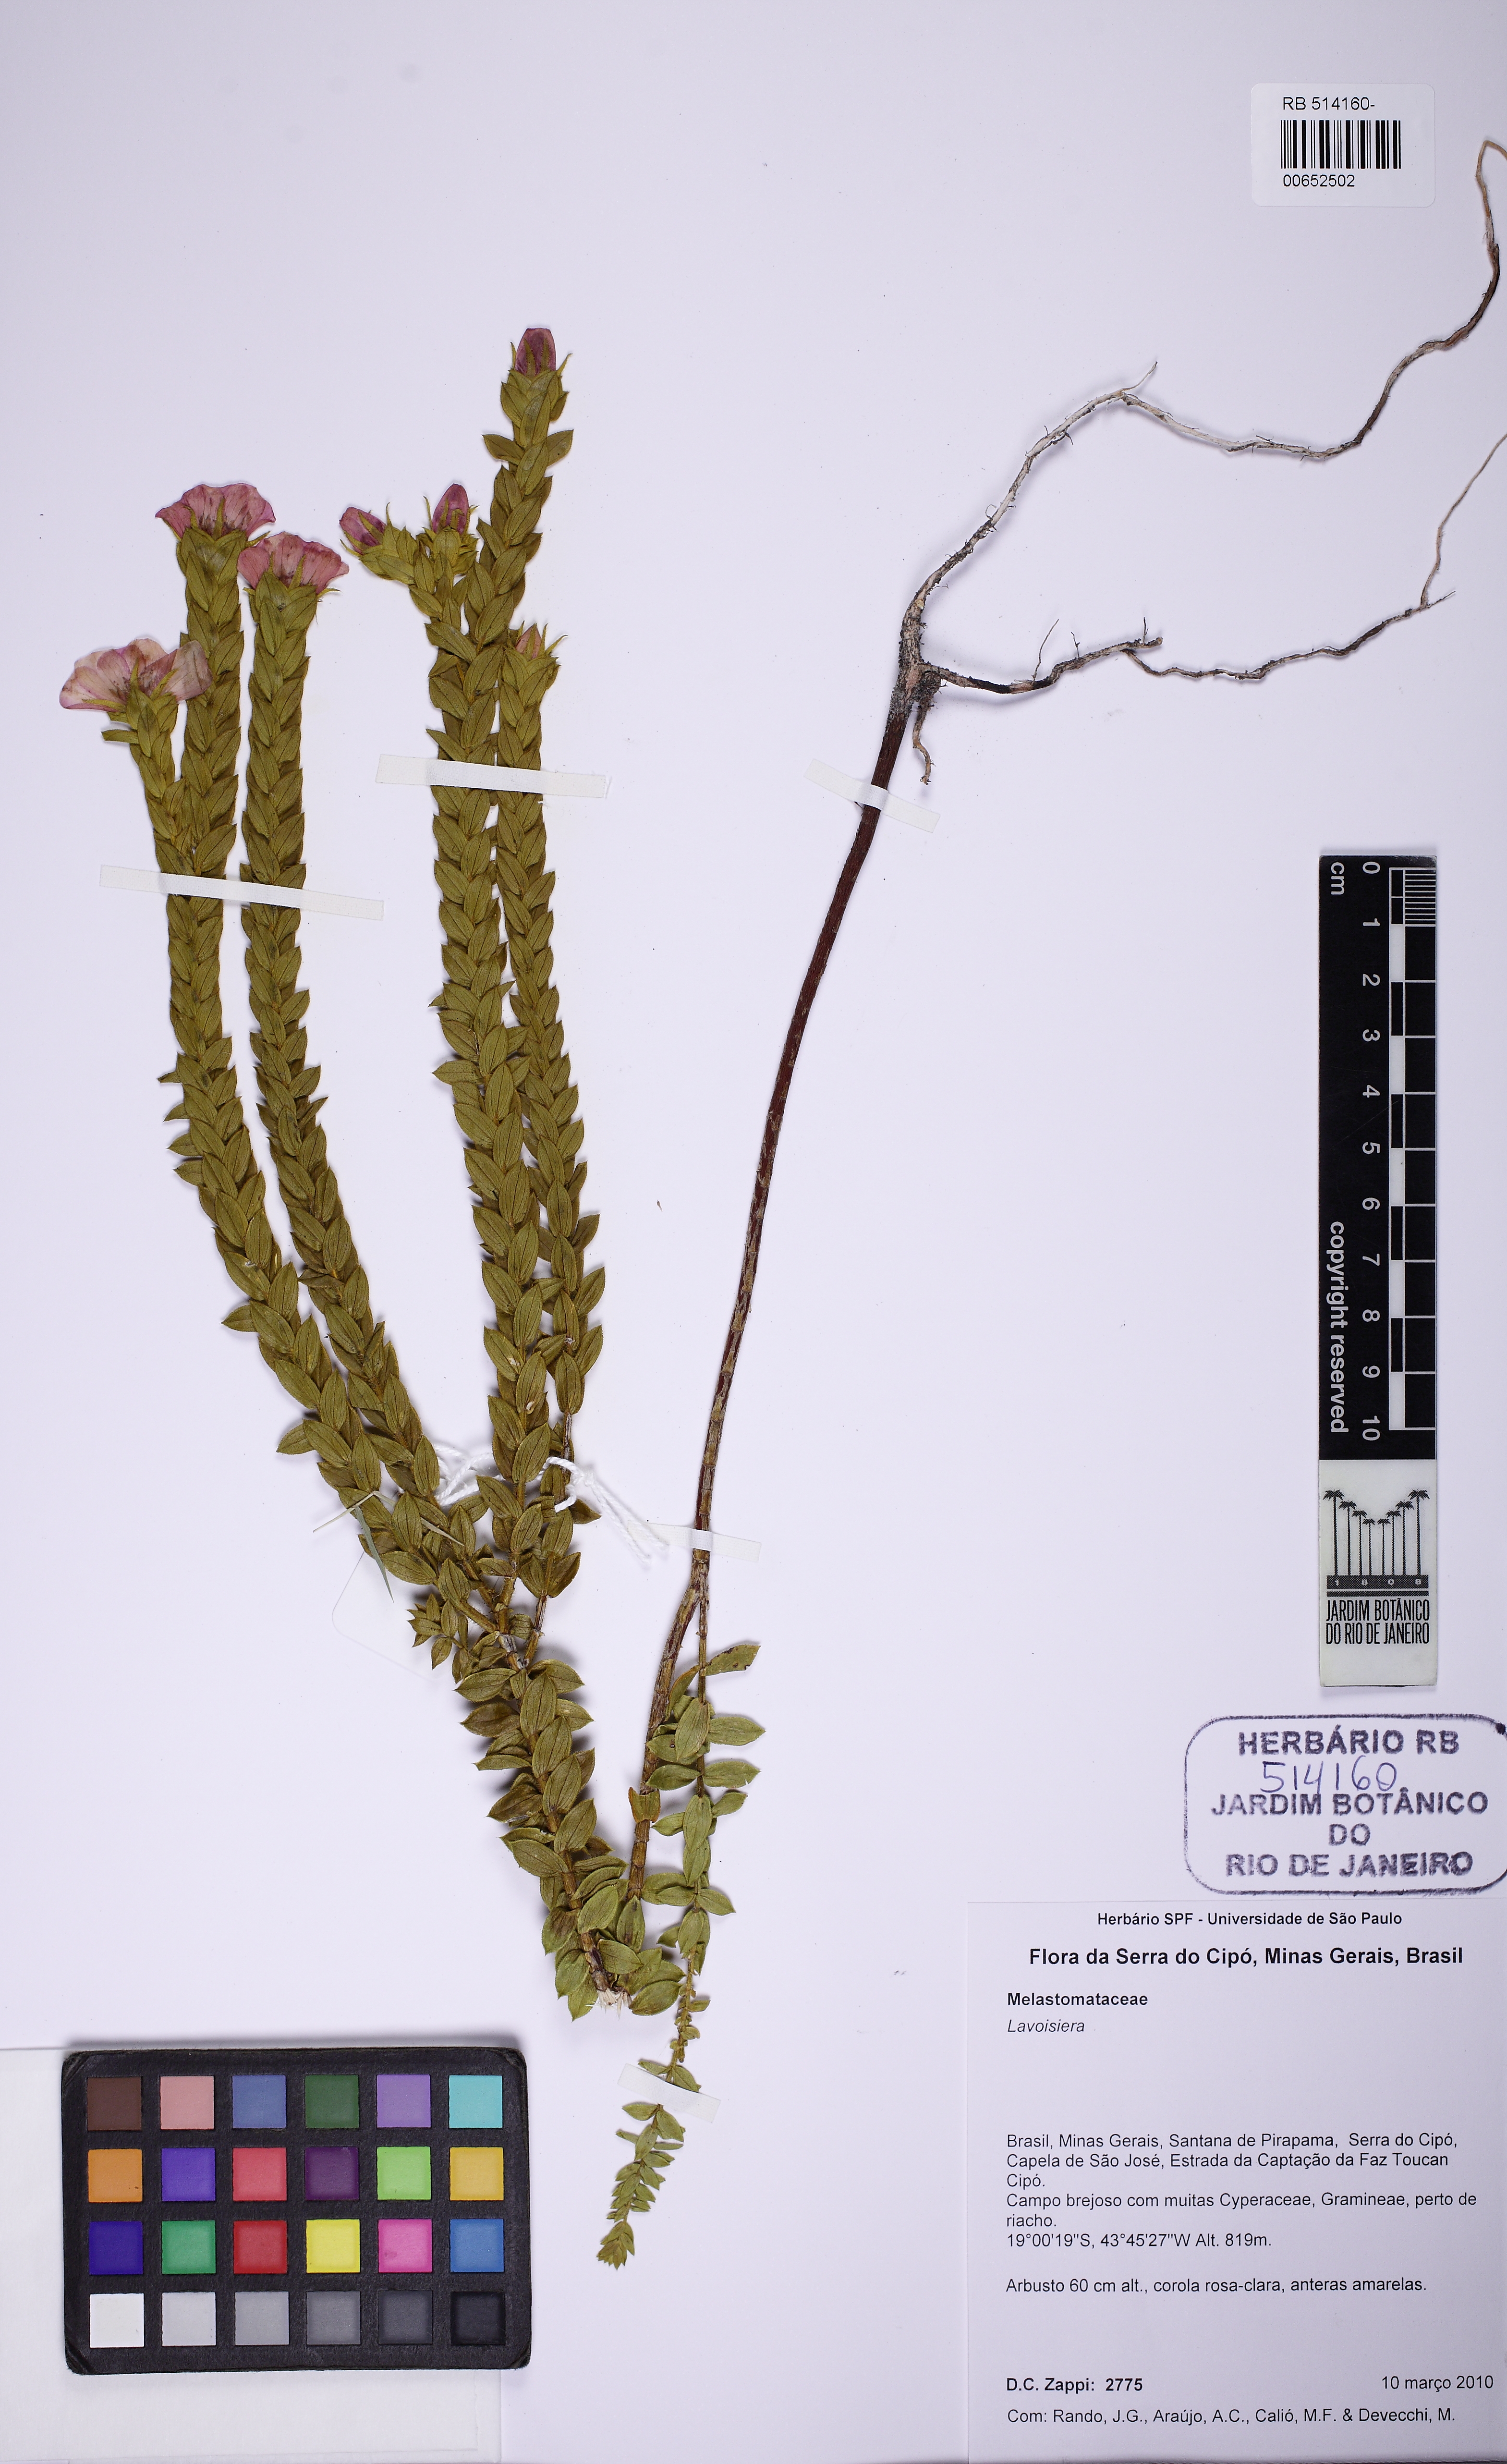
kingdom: Plantae
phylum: Tracheophyta
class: Magnoliopsida
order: Myrtales
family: Melastomataceae
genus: Microlicia
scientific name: Microlicia
